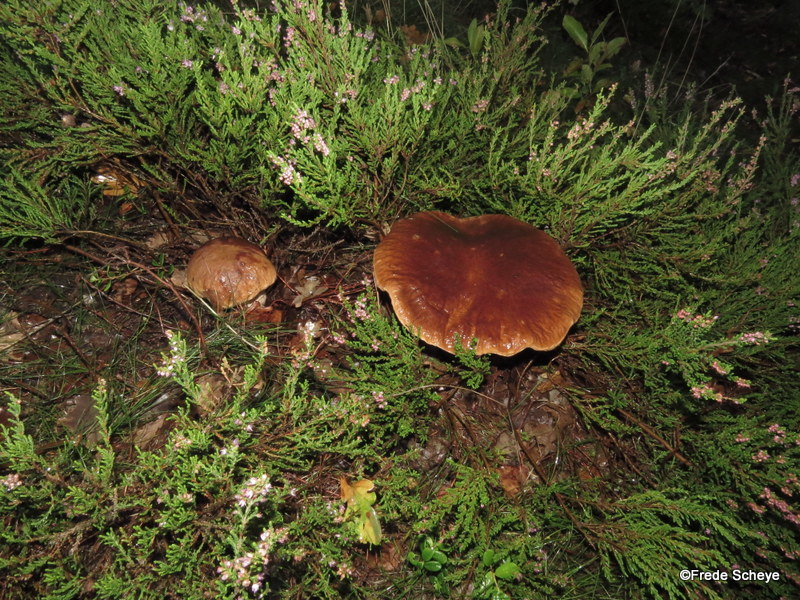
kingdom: Fungi
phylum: Basidiomycota
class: Agaricomycetes
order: Boletales
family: Boletaceae
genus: Boletus
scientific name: Boletus edulis
